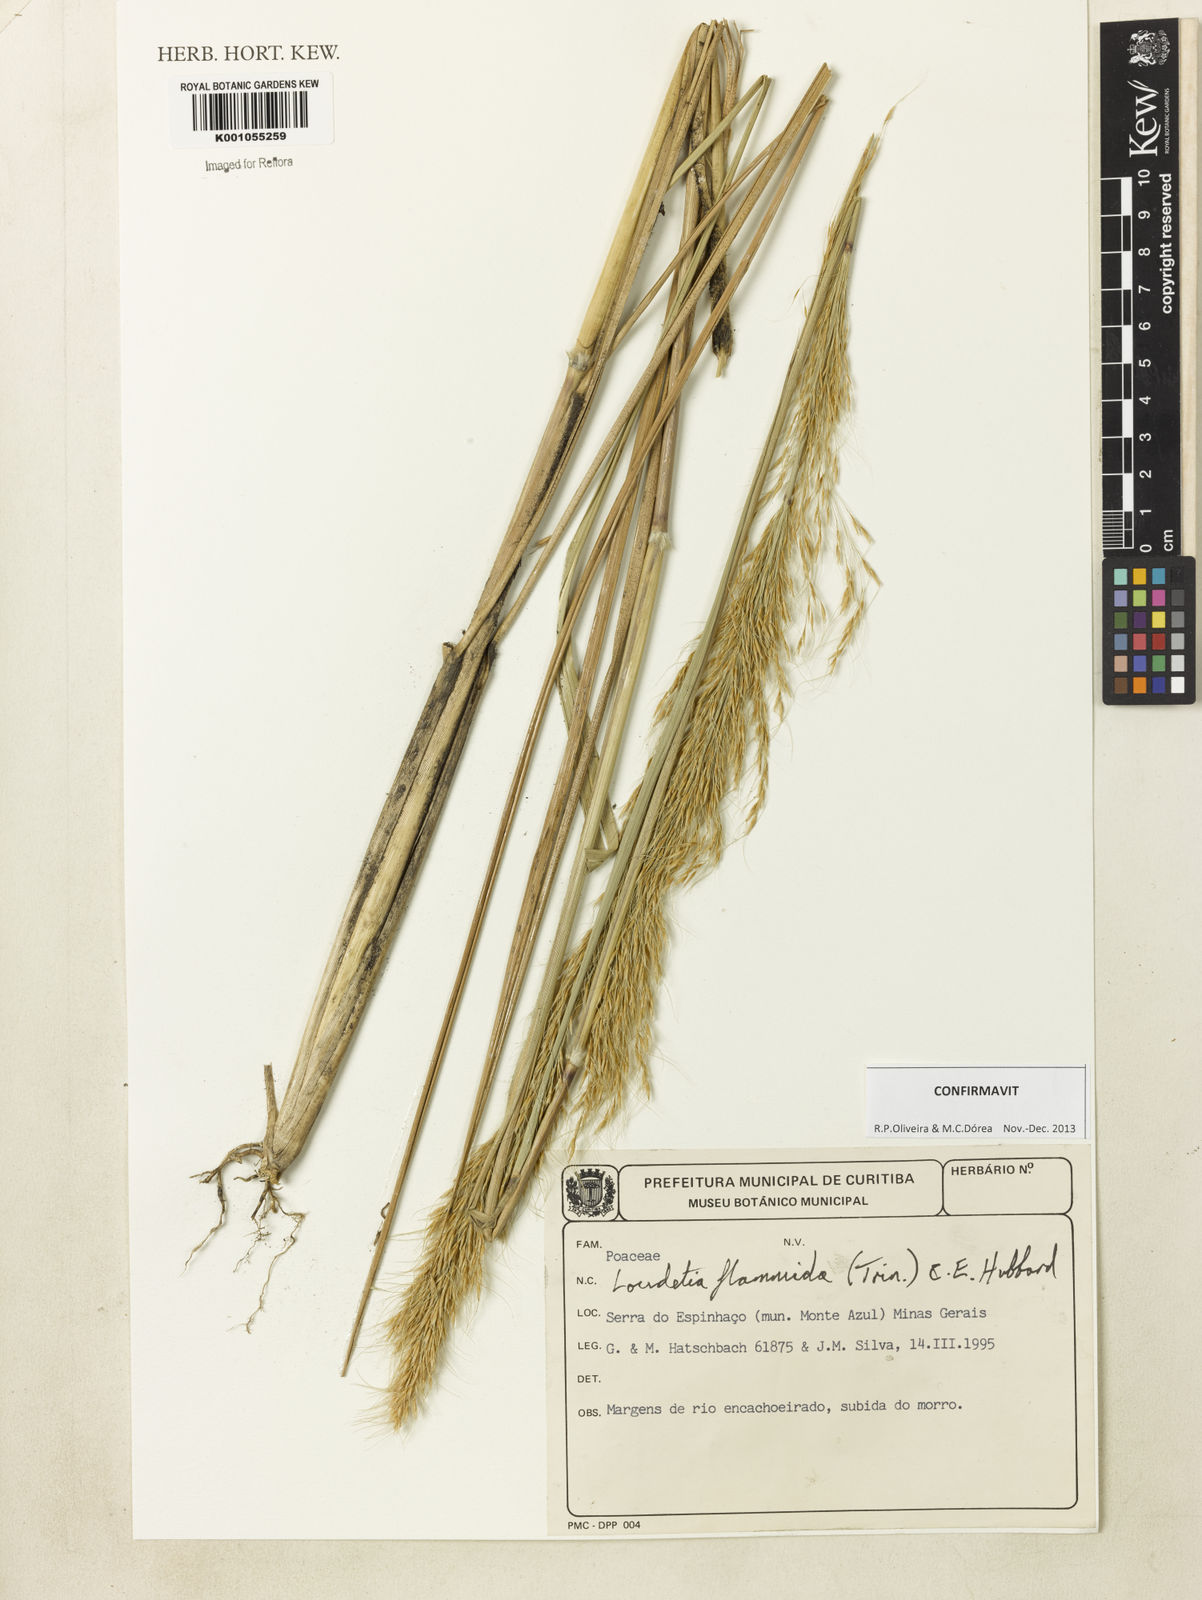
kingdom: Plantae
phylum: Tracheophyta
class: Liliopsida
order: Poales
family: Poaceae
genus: Loudetia
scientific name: Loudetia flammida
